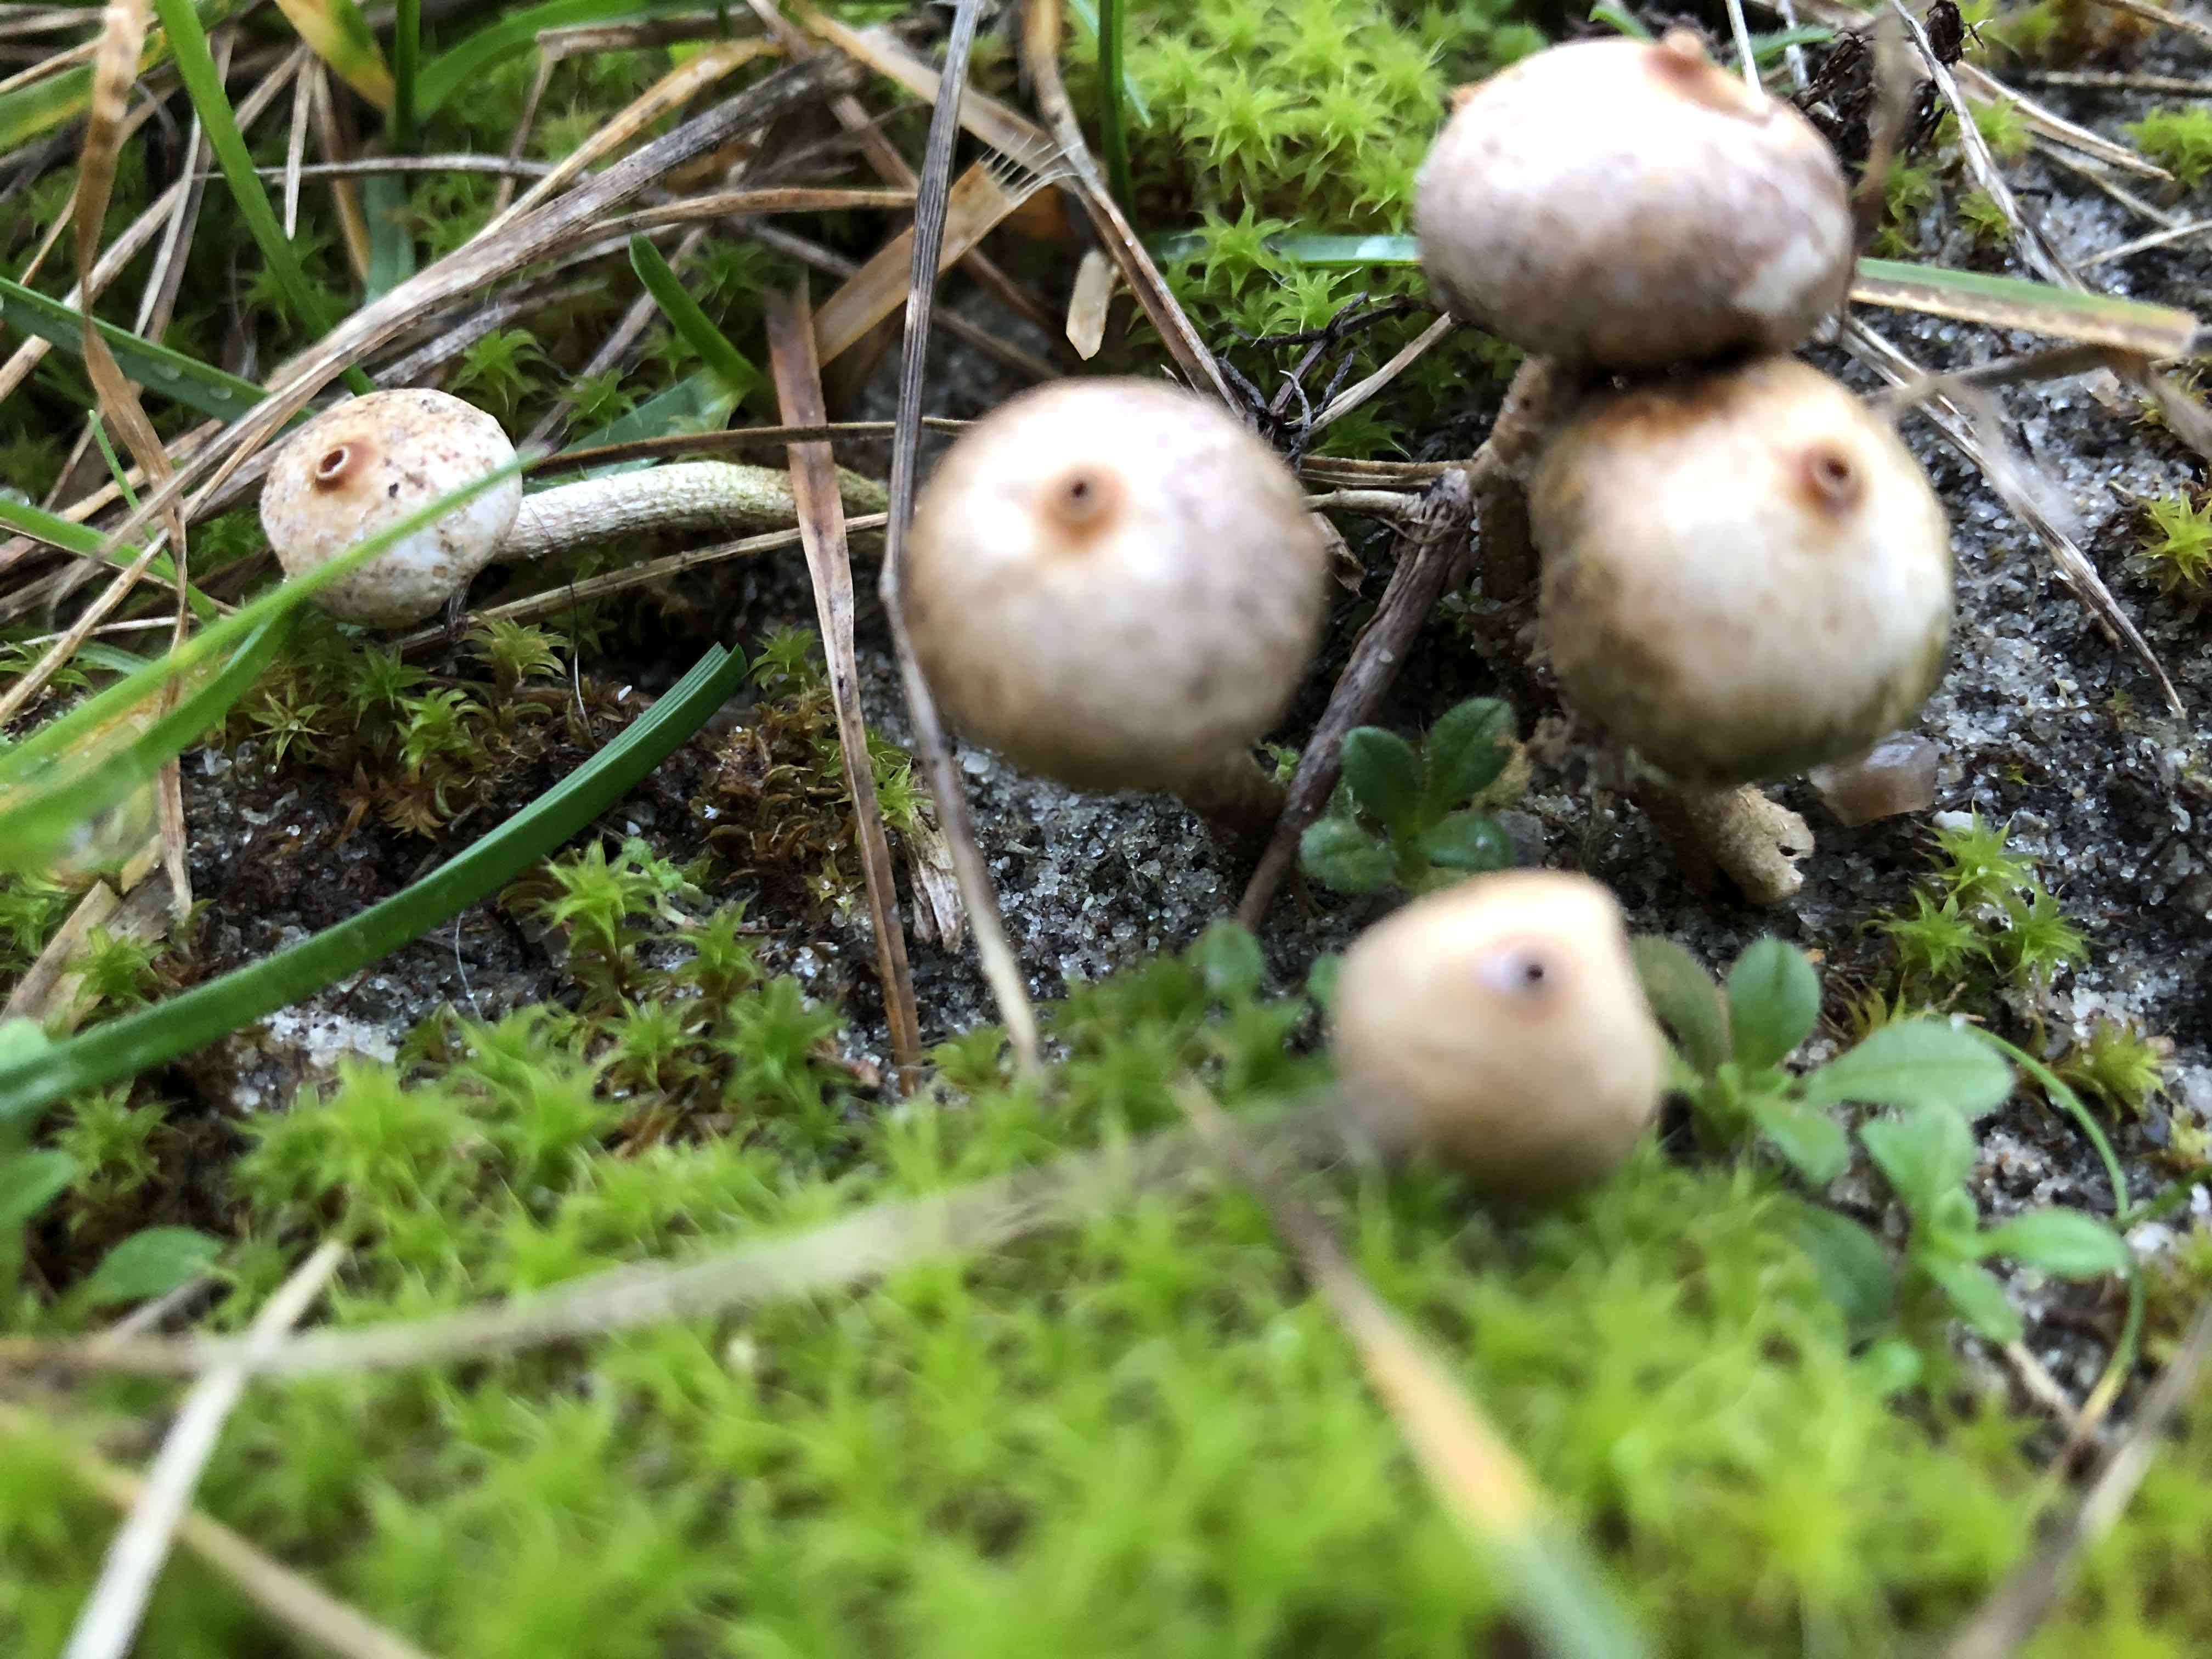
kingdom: Fungi
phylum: Basidiomycota
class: Agaricomycetes
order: Agaricales
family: Agaricaceae
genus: Tulostoma
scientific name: Tulostoma brumale
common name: vinter-stilkbovist
